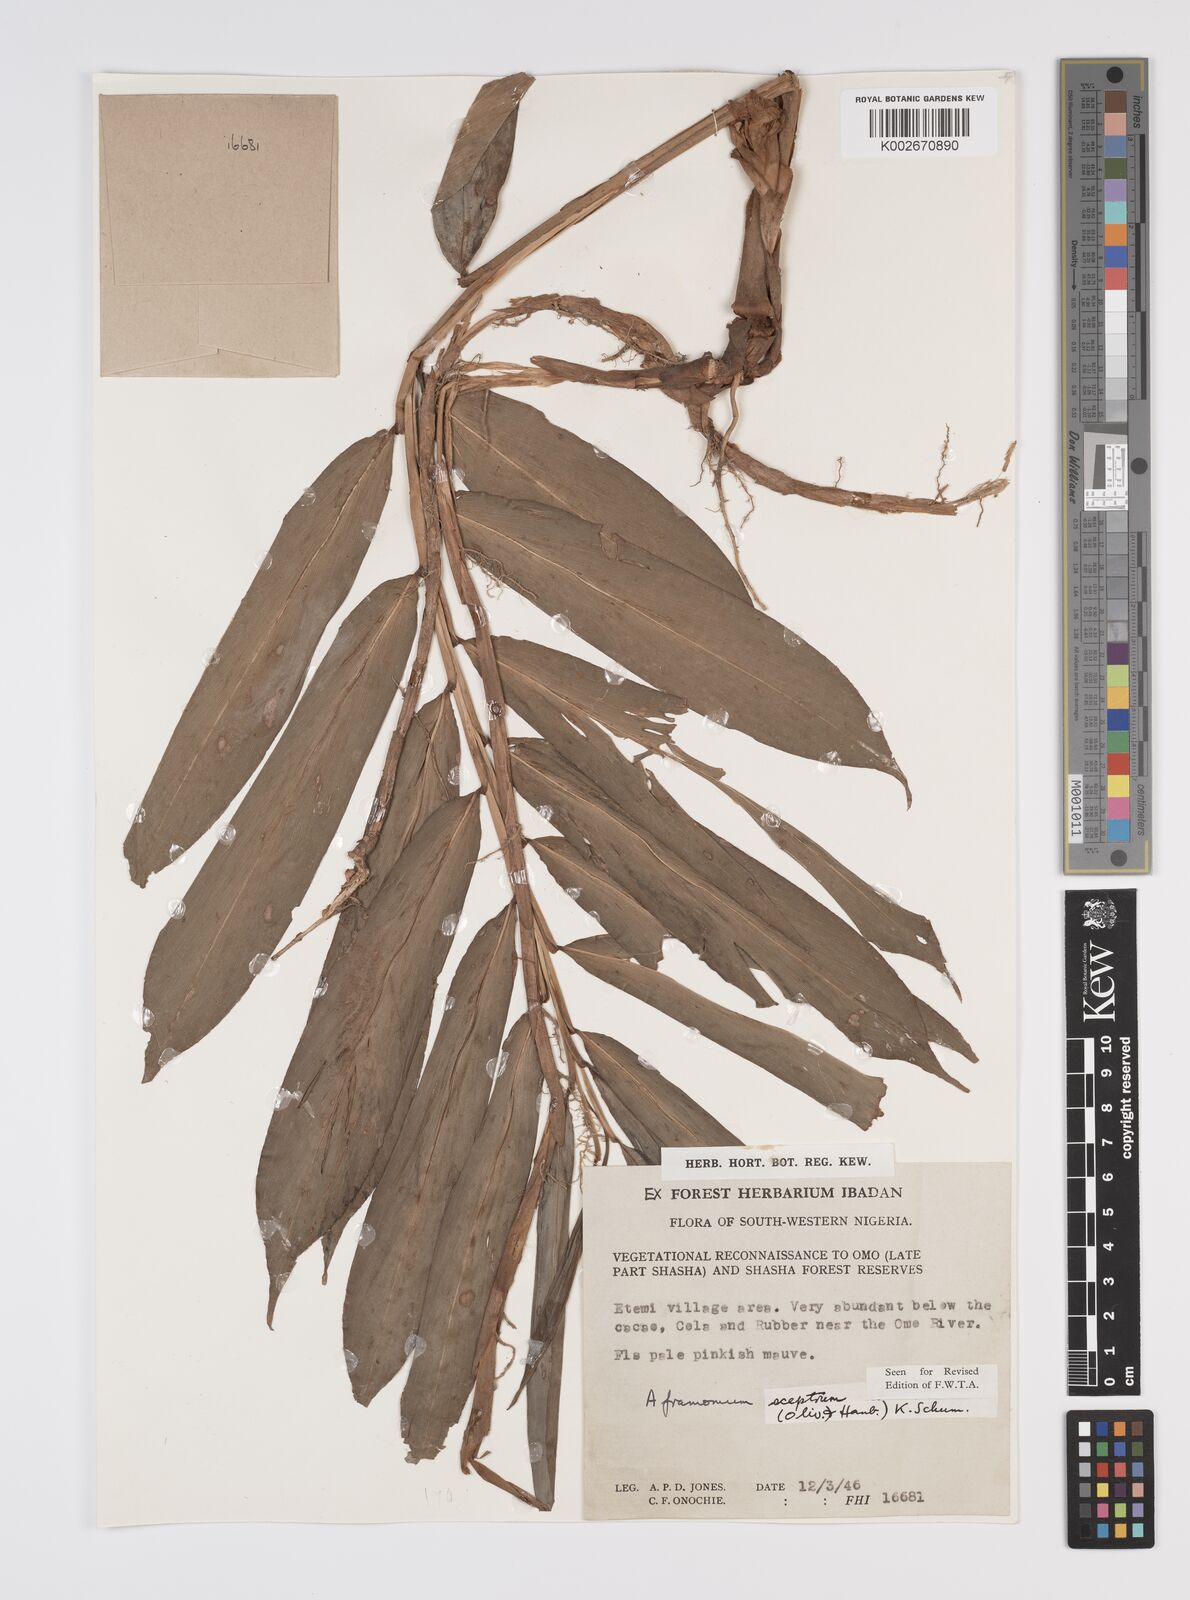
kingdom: Plantae
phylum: Tracheophyta
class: Liliopsida
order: Zingiberales
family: Zingiberaceae
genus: Aframomum
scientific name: Aframomum cereum
